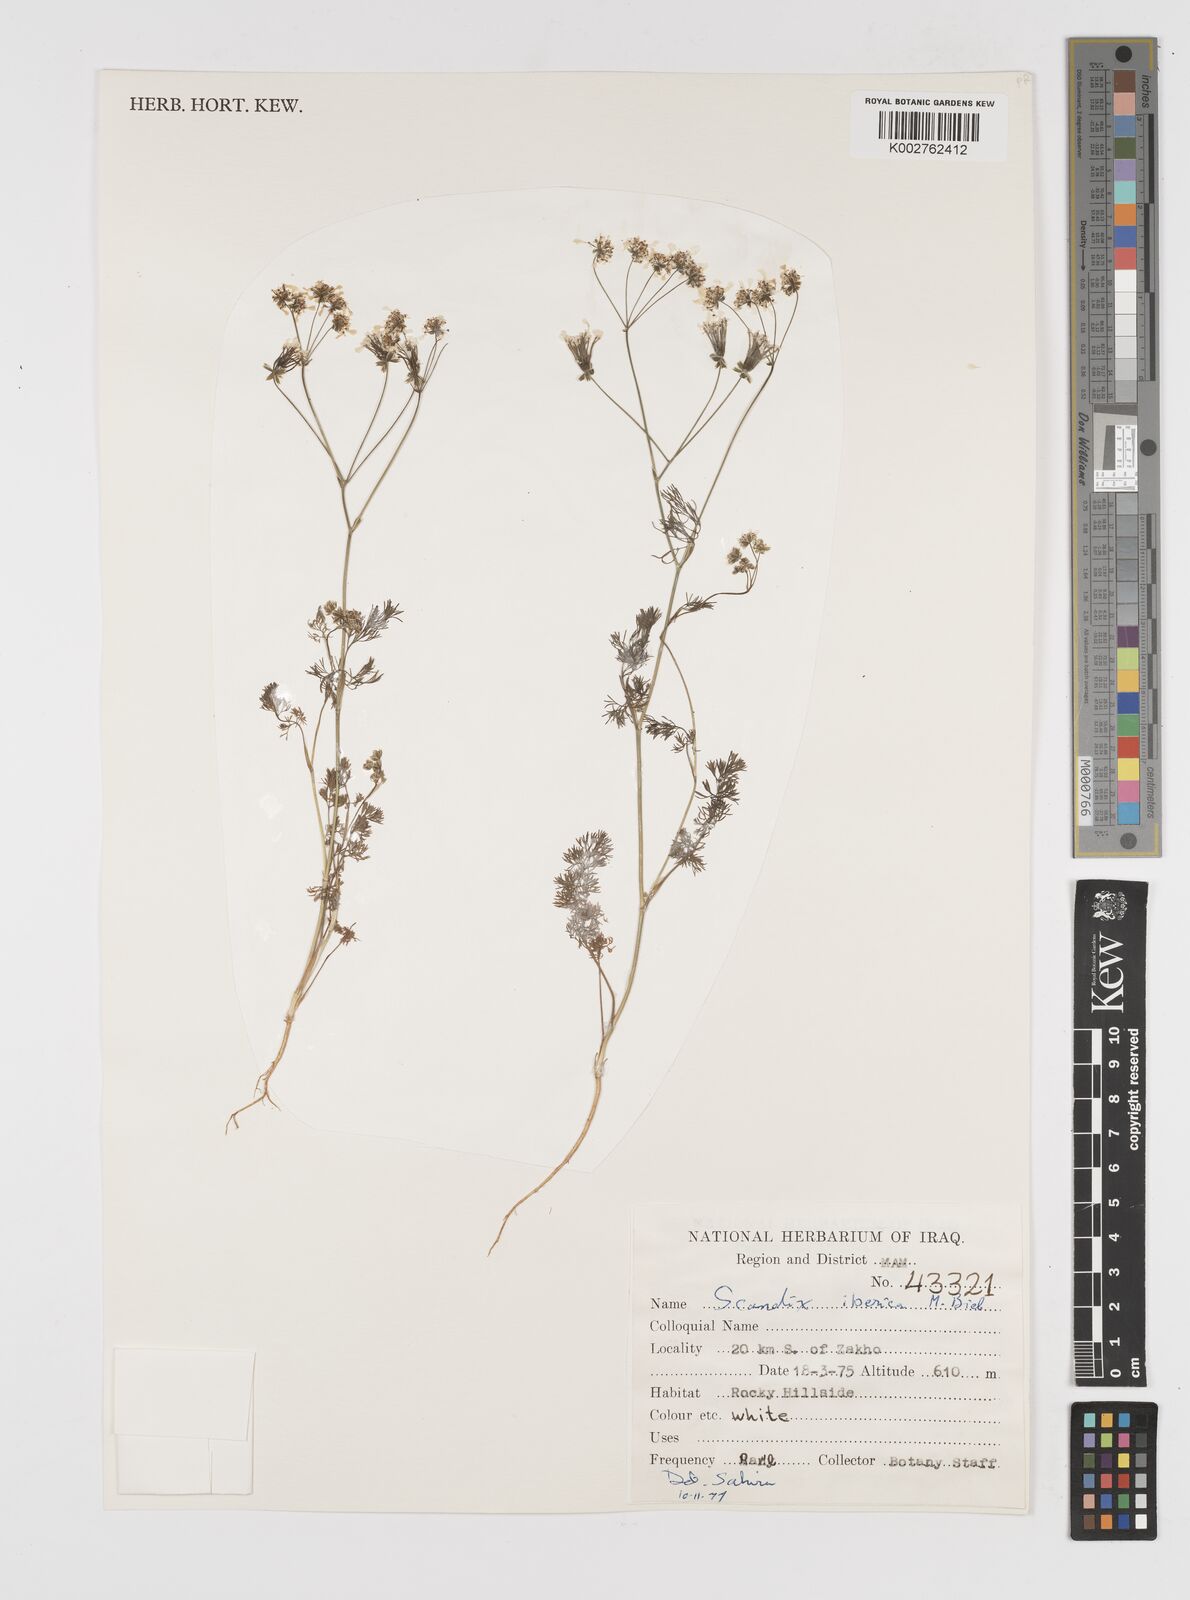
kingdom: Plantae
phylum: Tracheophyta
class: Magnoliopsida
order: Apiales
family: Apiaceae
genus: Scandix
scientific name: Scandix iberica
